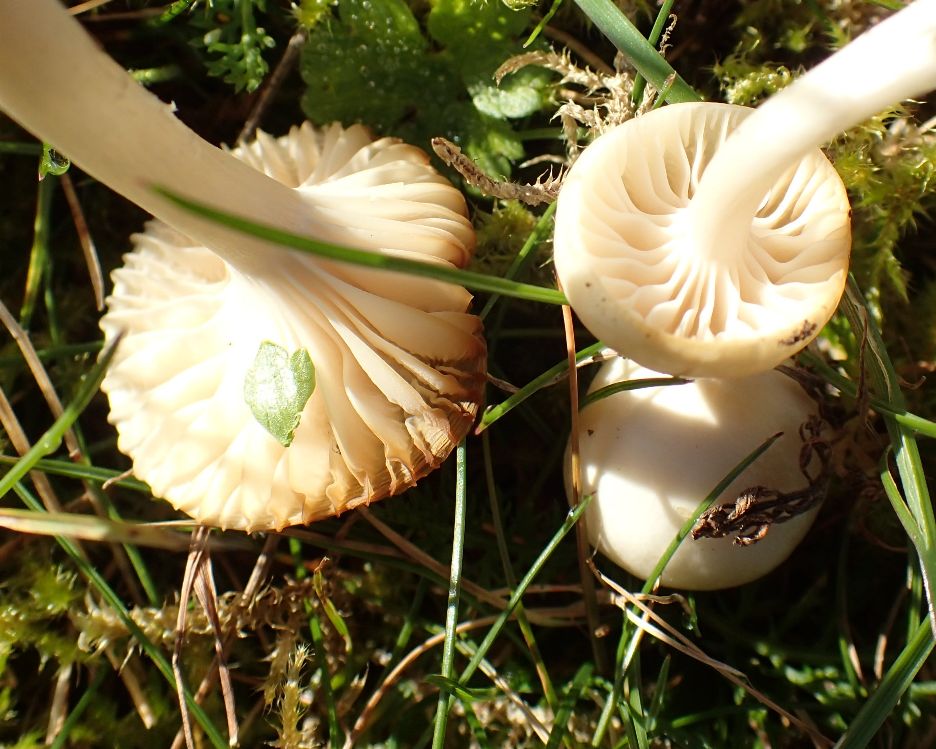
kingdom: Fungi
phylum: Basidiomycota
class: Agaricomycetes
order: Agaricales
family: Hygrophoraceae
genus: Cuphophyllus
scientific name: Cuphophyllus virgineus
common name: snehvid vokshat
